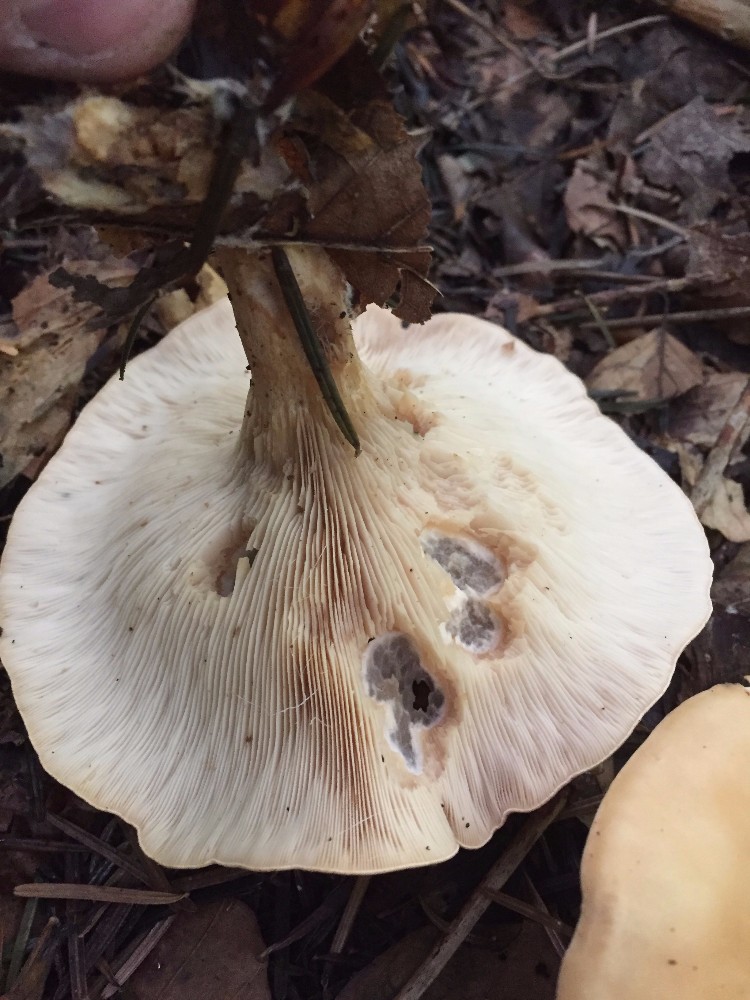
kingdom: Fungi
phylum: Basidiomycota
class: Agaricomycetes
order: Agaricales
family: Tricholomataceae
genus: Paralepista
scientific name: Paralepista flaccida
